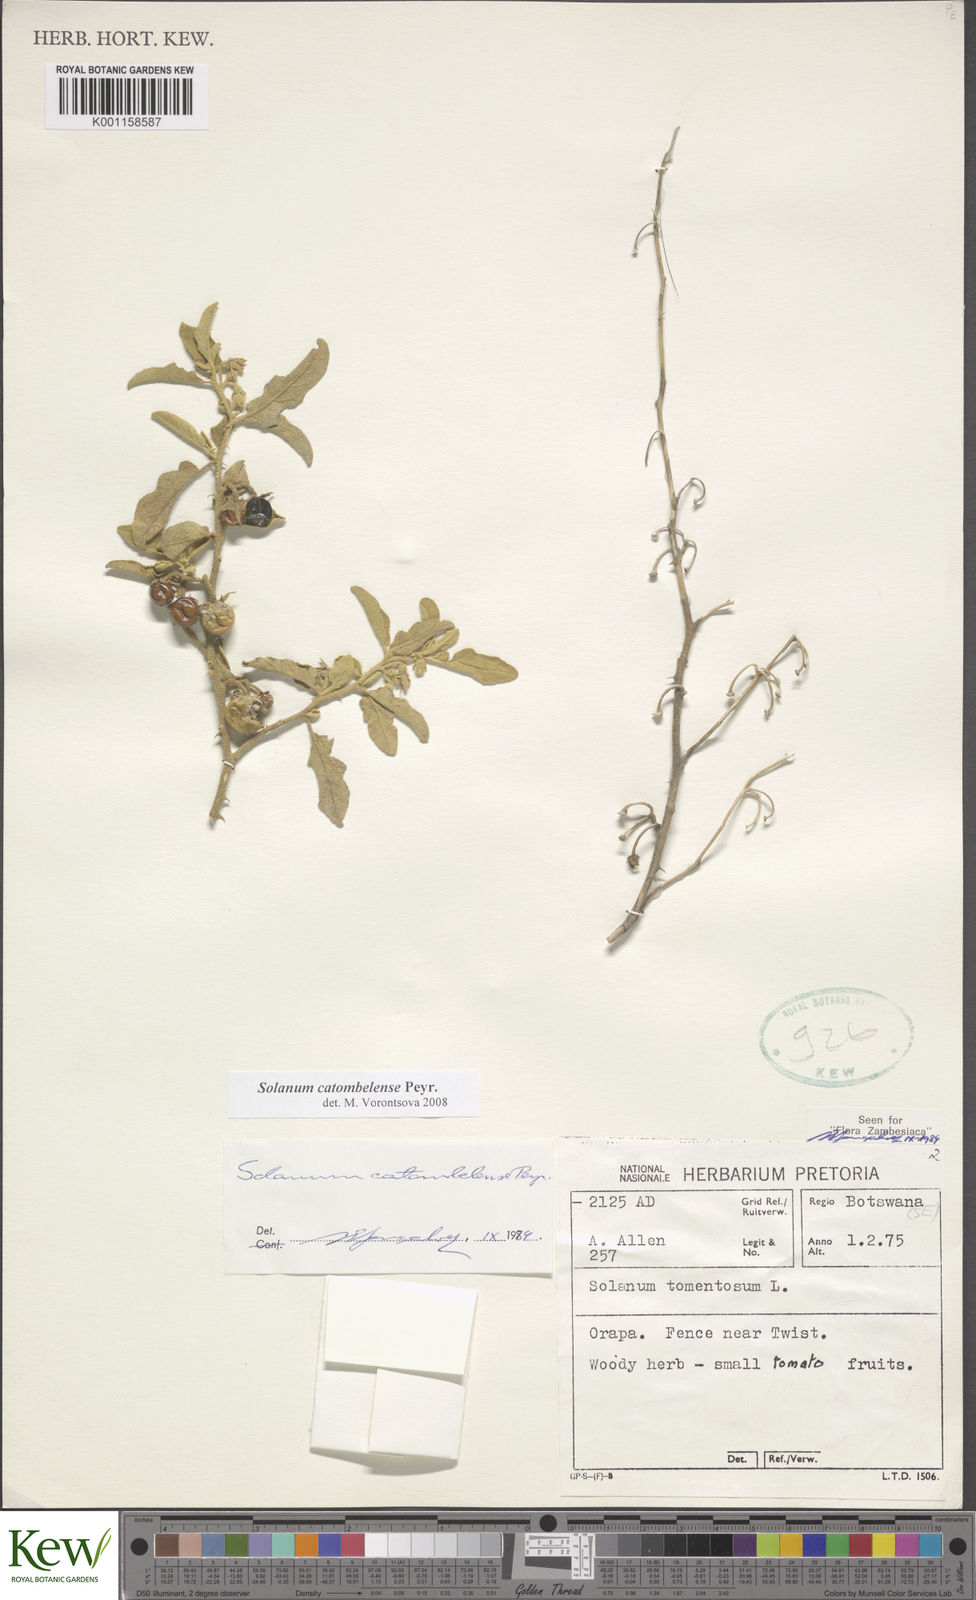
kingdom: Plantae
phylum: Tracheophyta
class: Magnoliopsida
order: Solanales
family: Solanaceae
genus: Solanum
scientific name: Solanum catombelense
